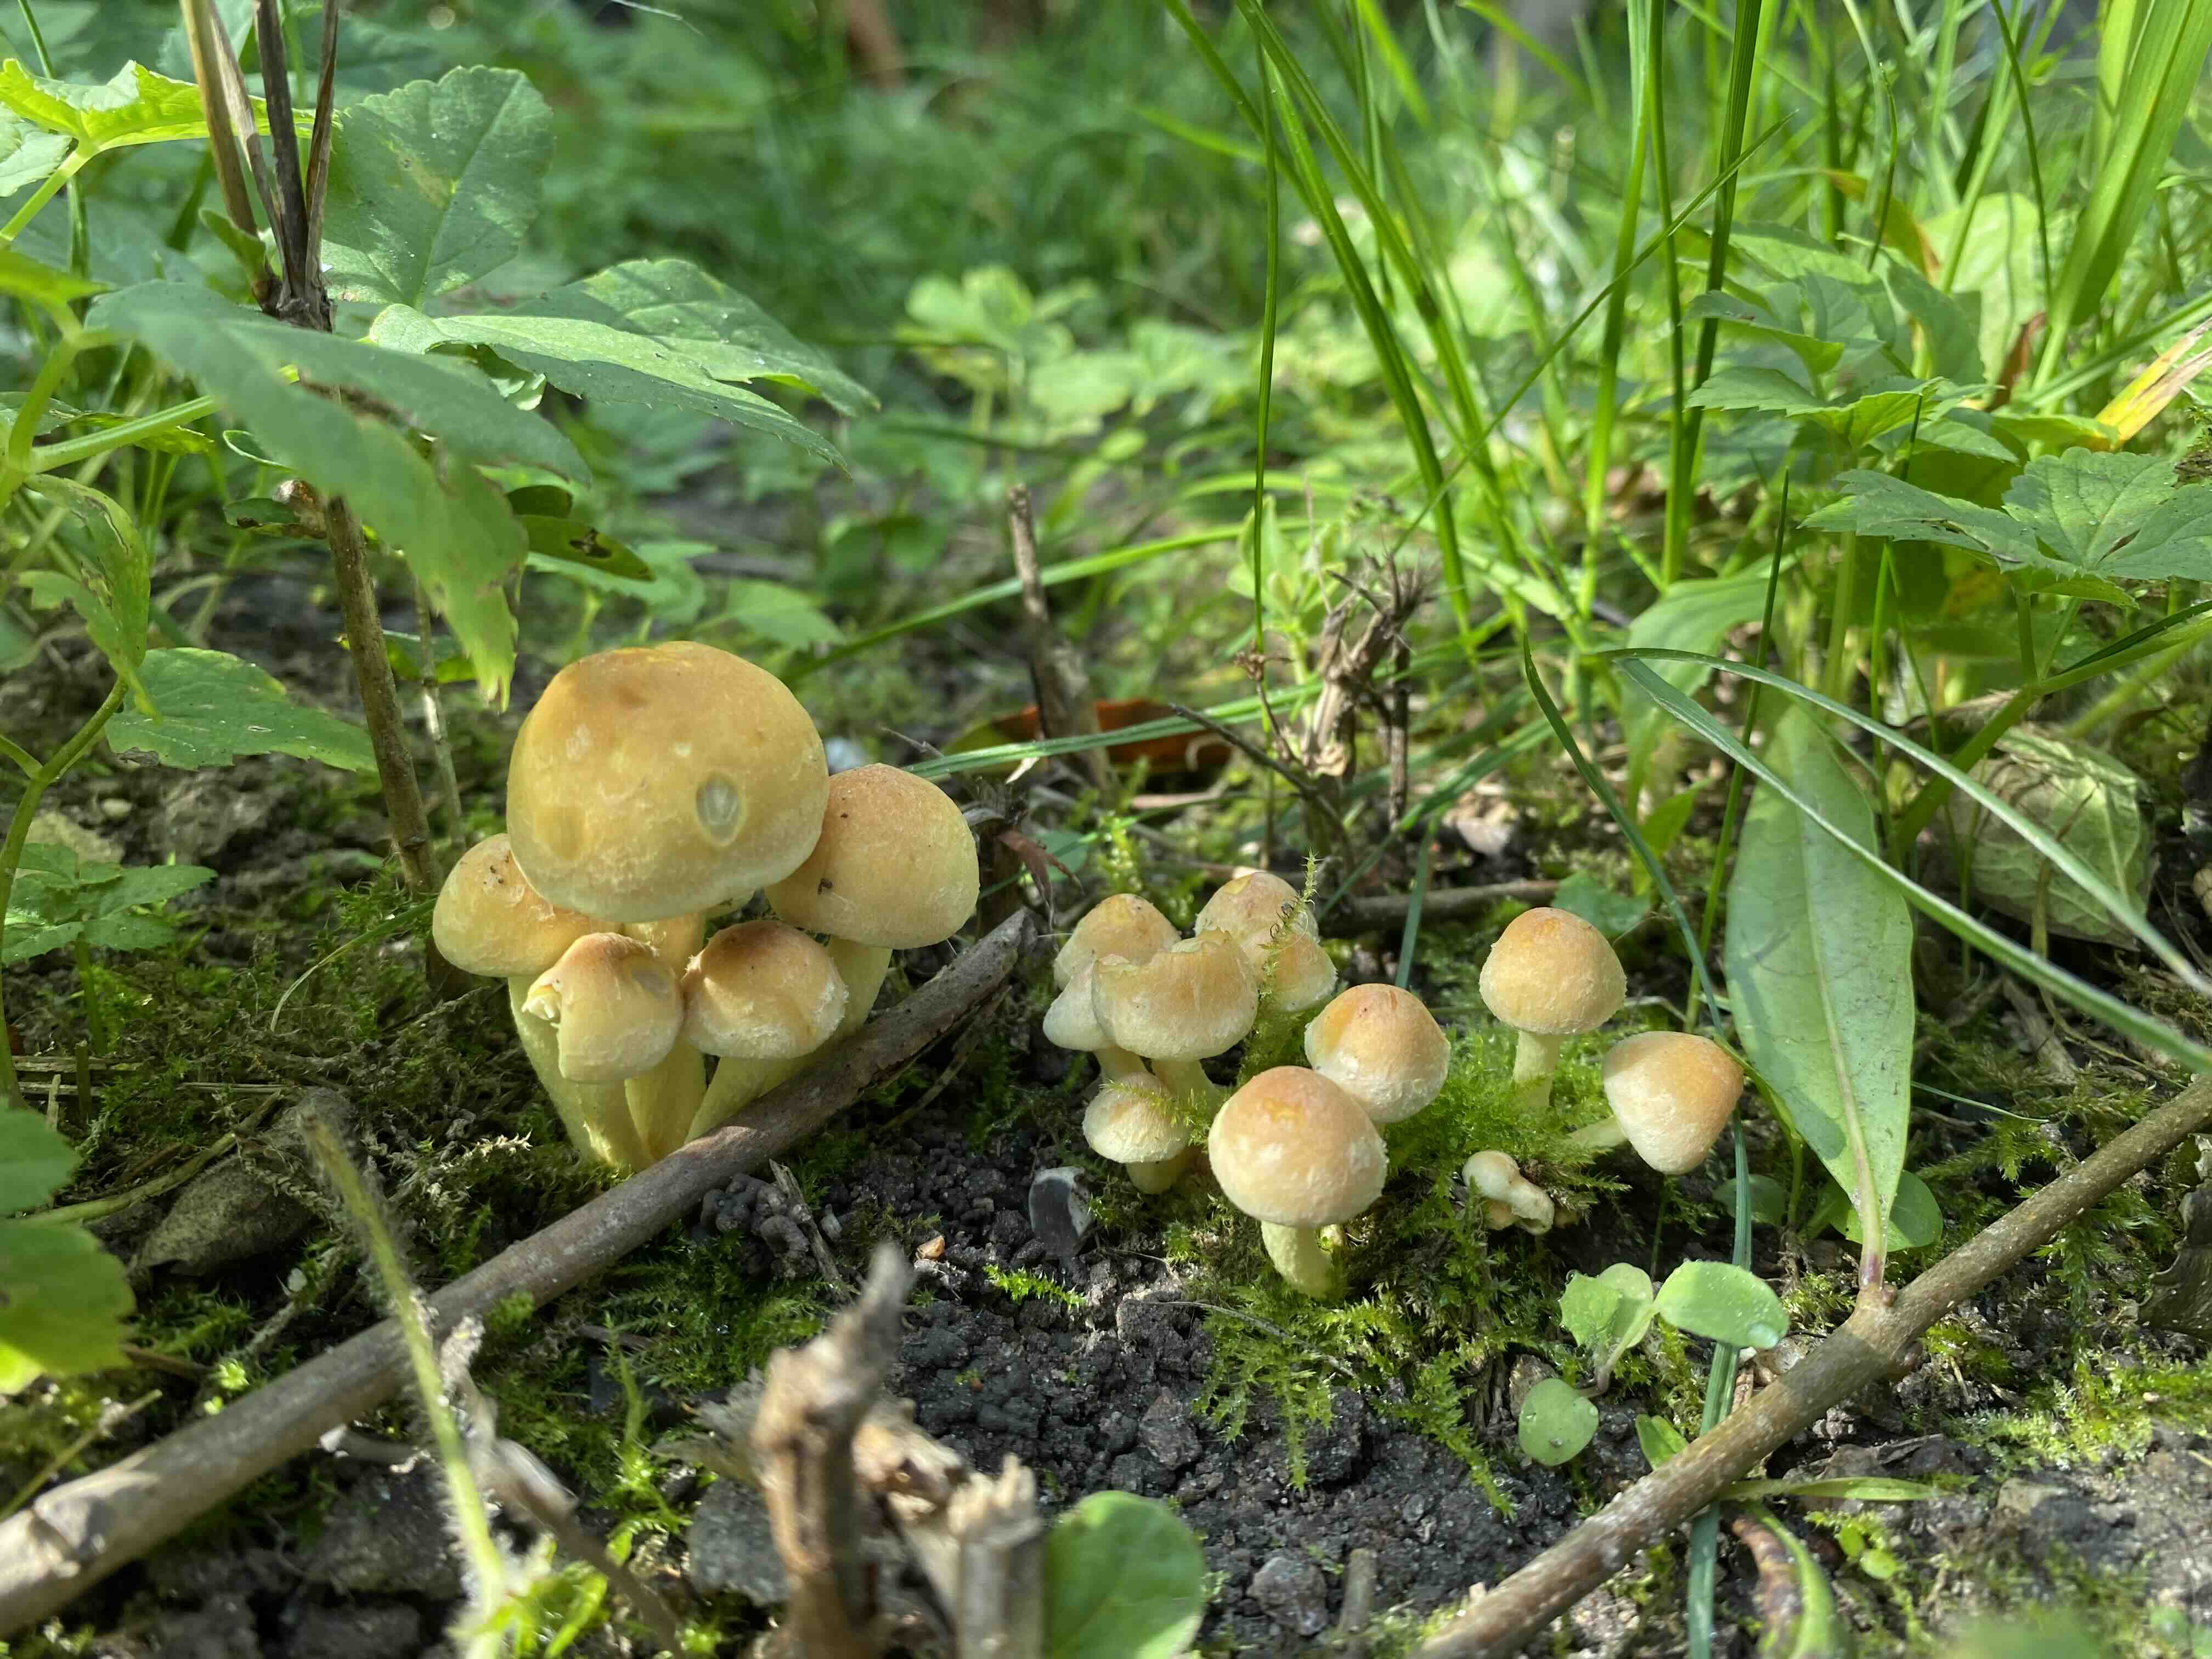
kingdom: Fungi
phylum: Basidiomycota
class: Agaricomycetes
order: Agaricales
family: Strophariaceae
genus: Hypholoma
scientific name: Hypholoma
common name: svovlhat
